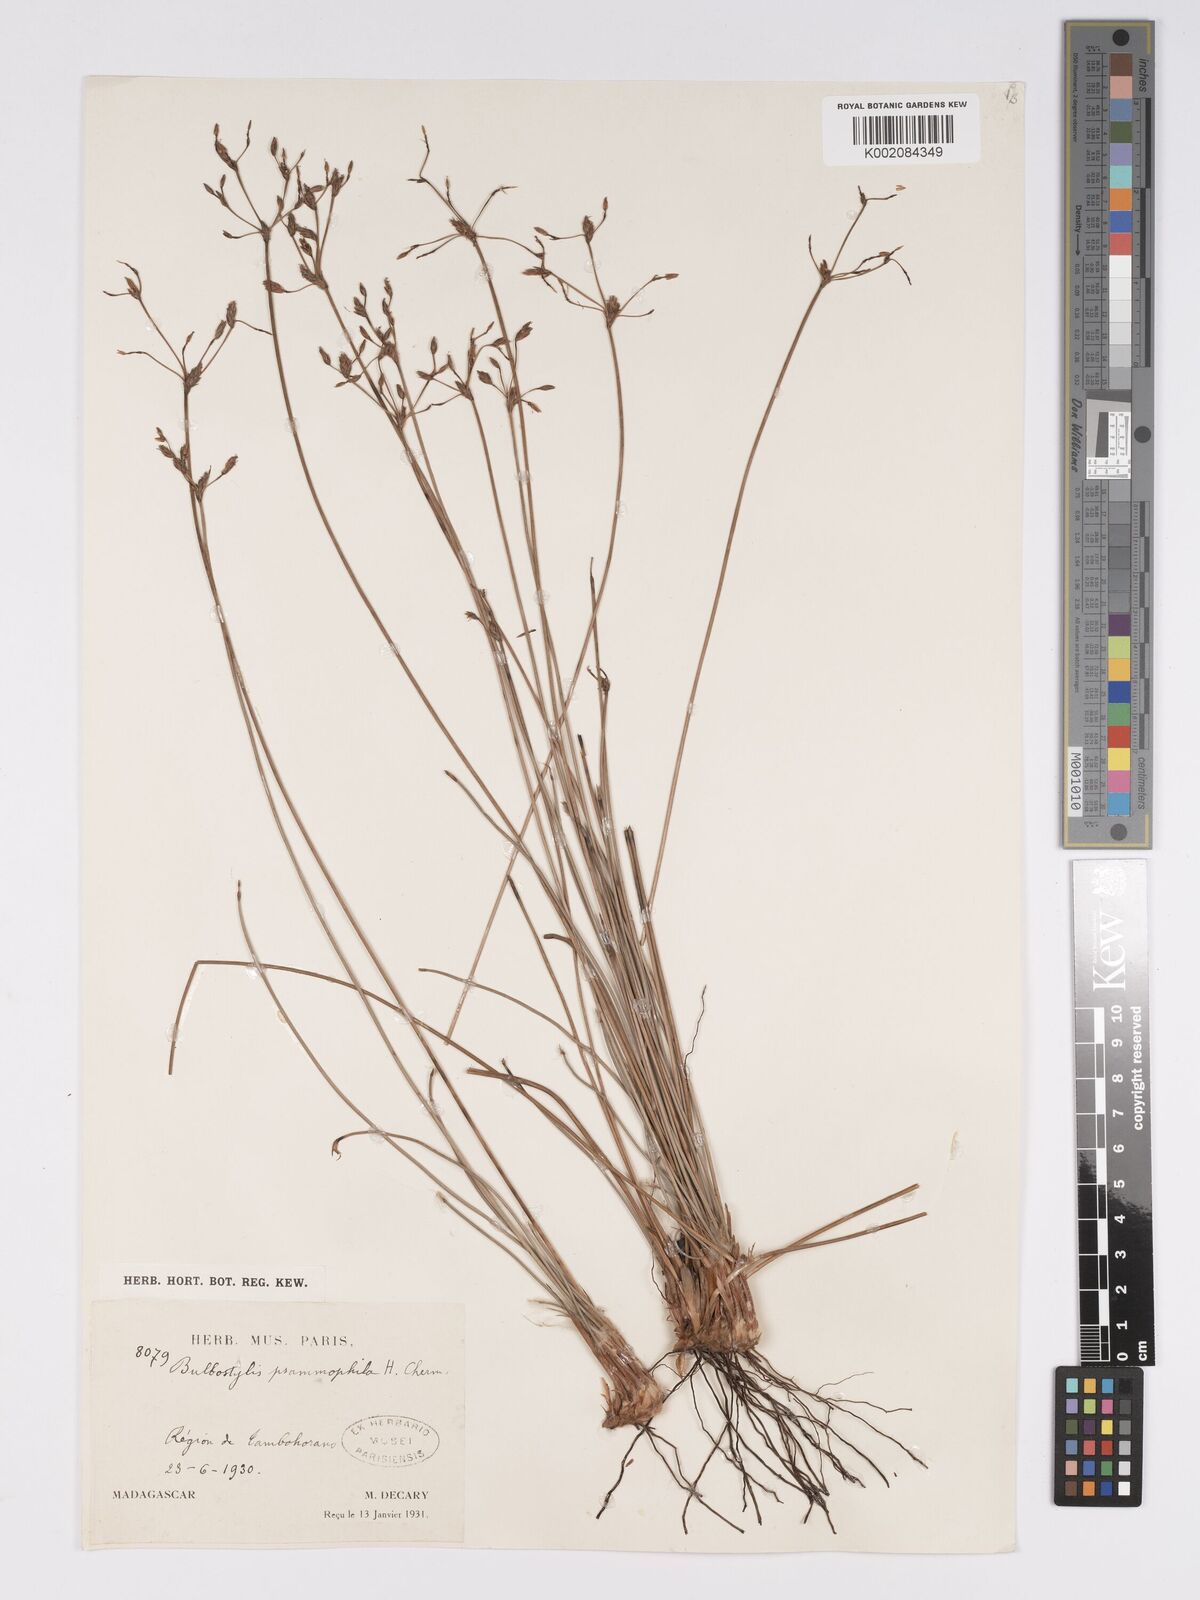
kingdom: Plantae
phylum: Tracheophyta
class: Liliopsida
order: Poales
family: Cyperaceae
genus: Bulbostylis
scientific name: Bulbostylis psammophila
